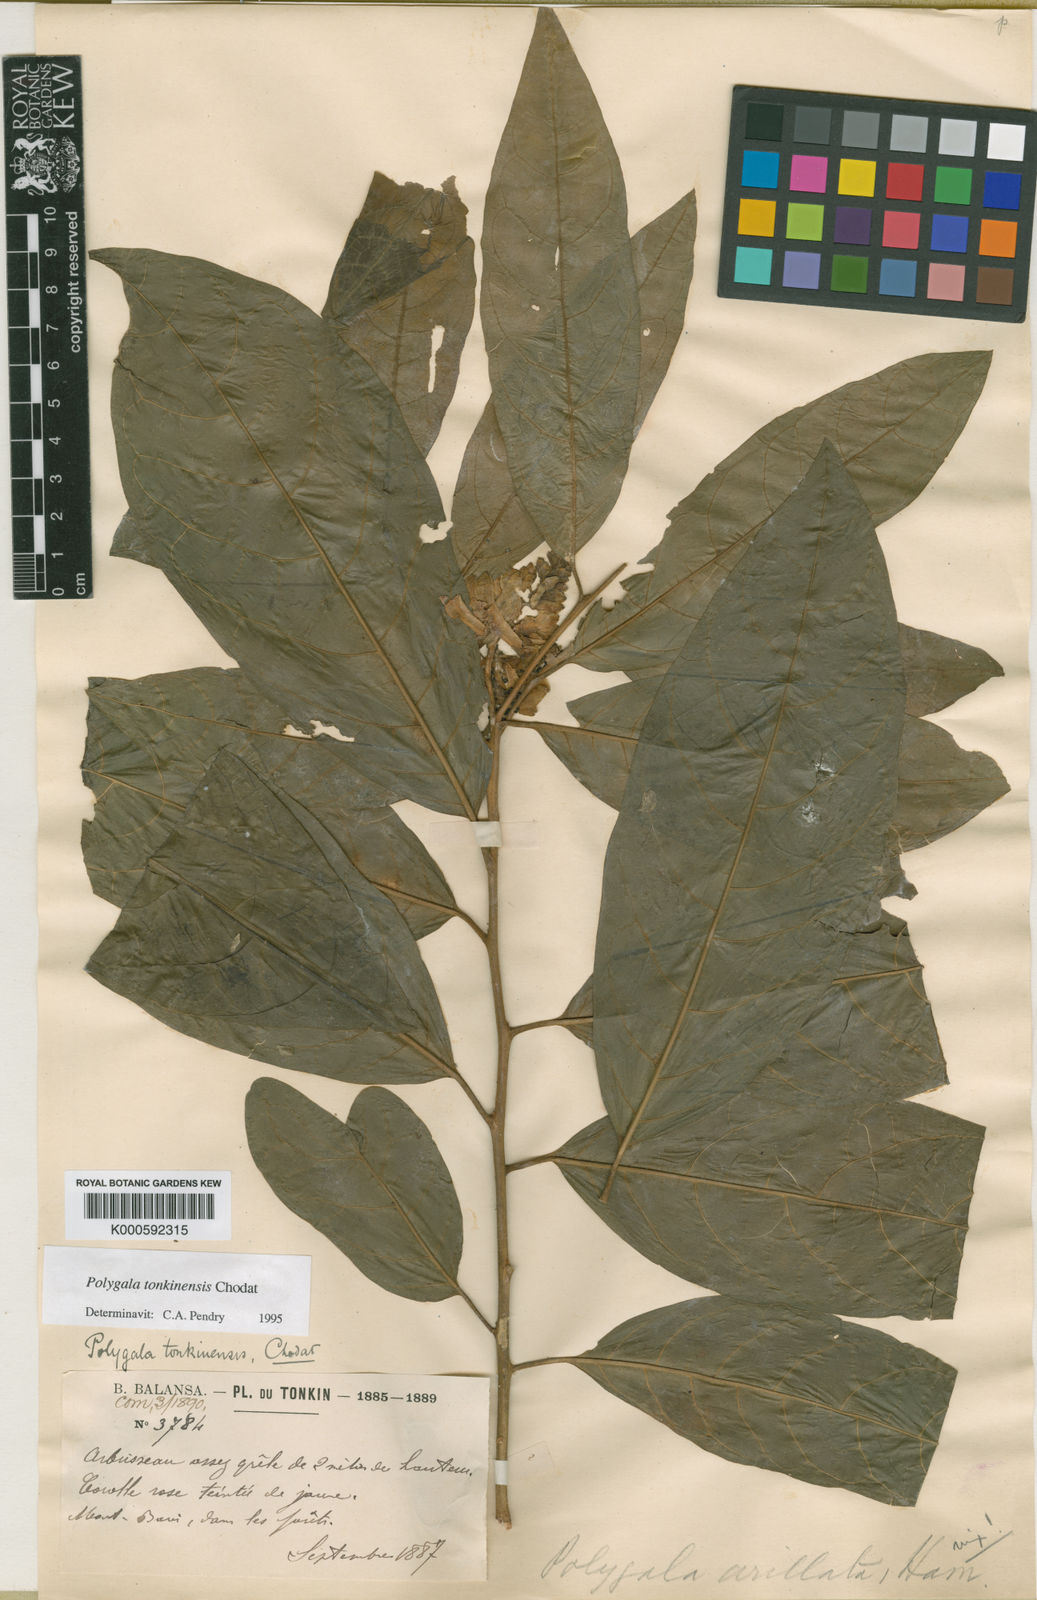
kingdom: Plantae
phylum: Tracheophyta
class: Magnoliopsida
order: Fabales
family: Polygalaceae
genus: Polygala
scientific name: Polygala tonkinensis
